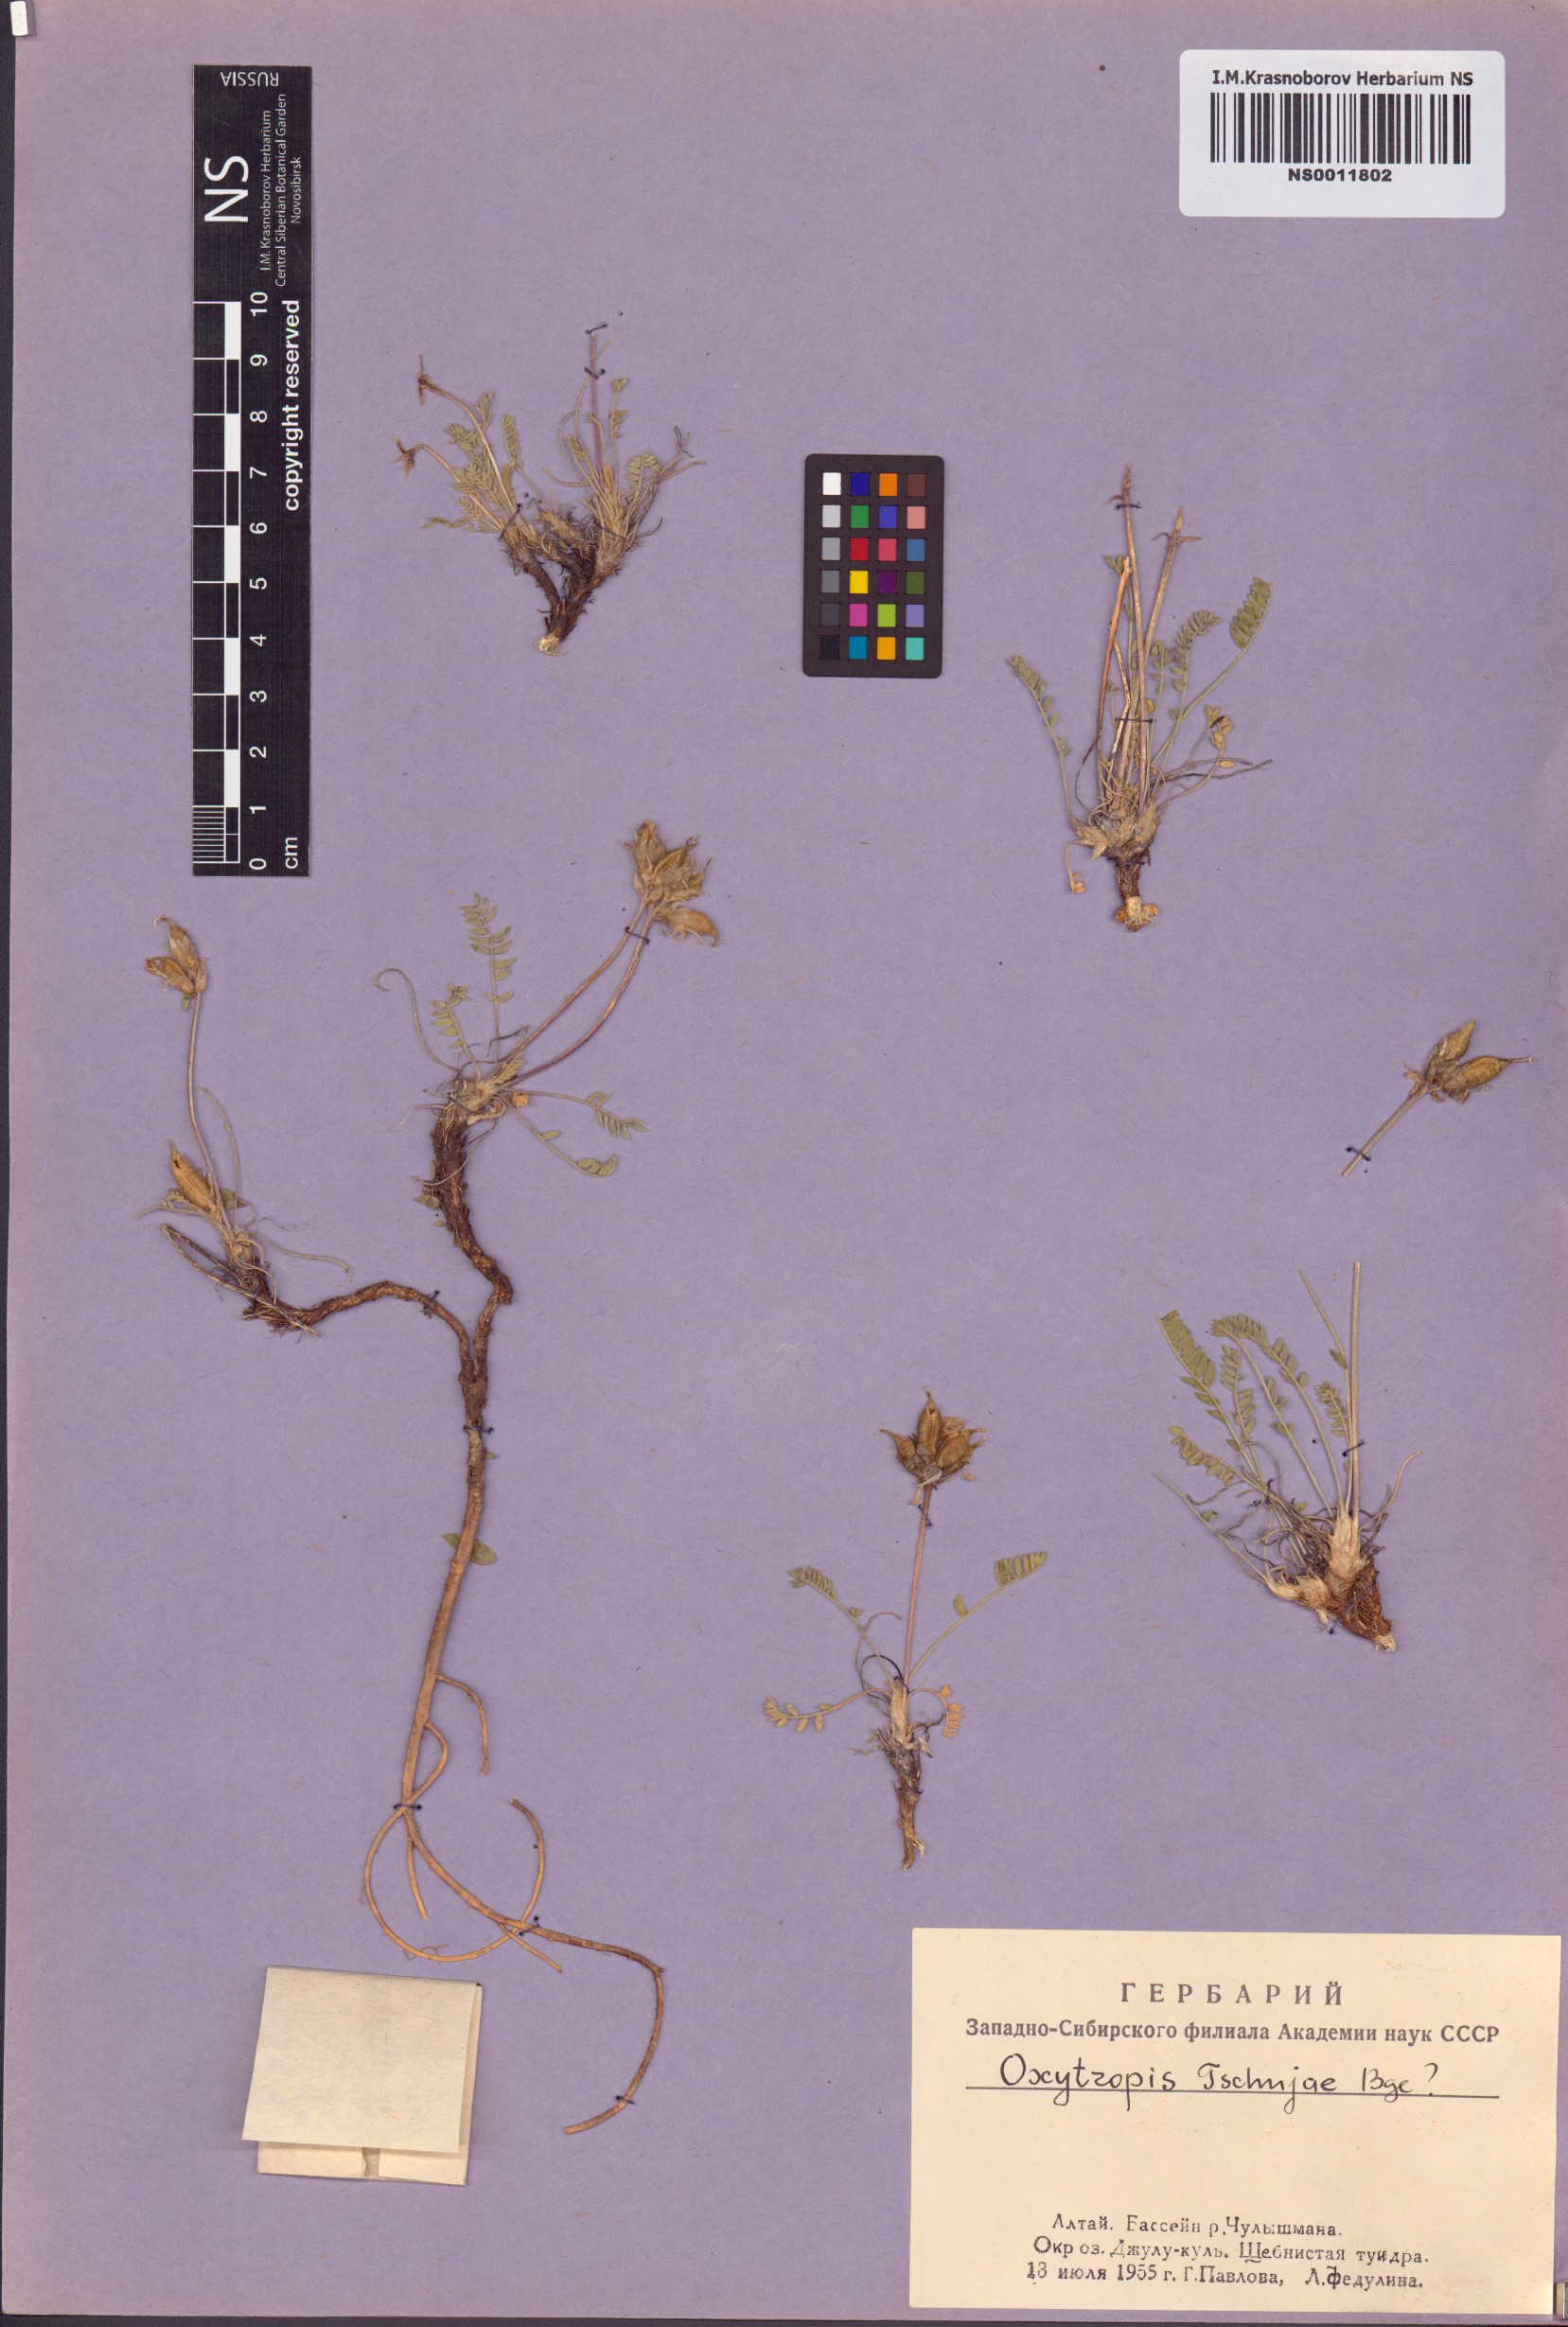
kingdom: Plantae
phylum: Tracheophyta
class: Magnoliopsida
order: Fabales
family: Fabaceae
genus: Oxytropis
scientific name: Oxytropis tschujae
